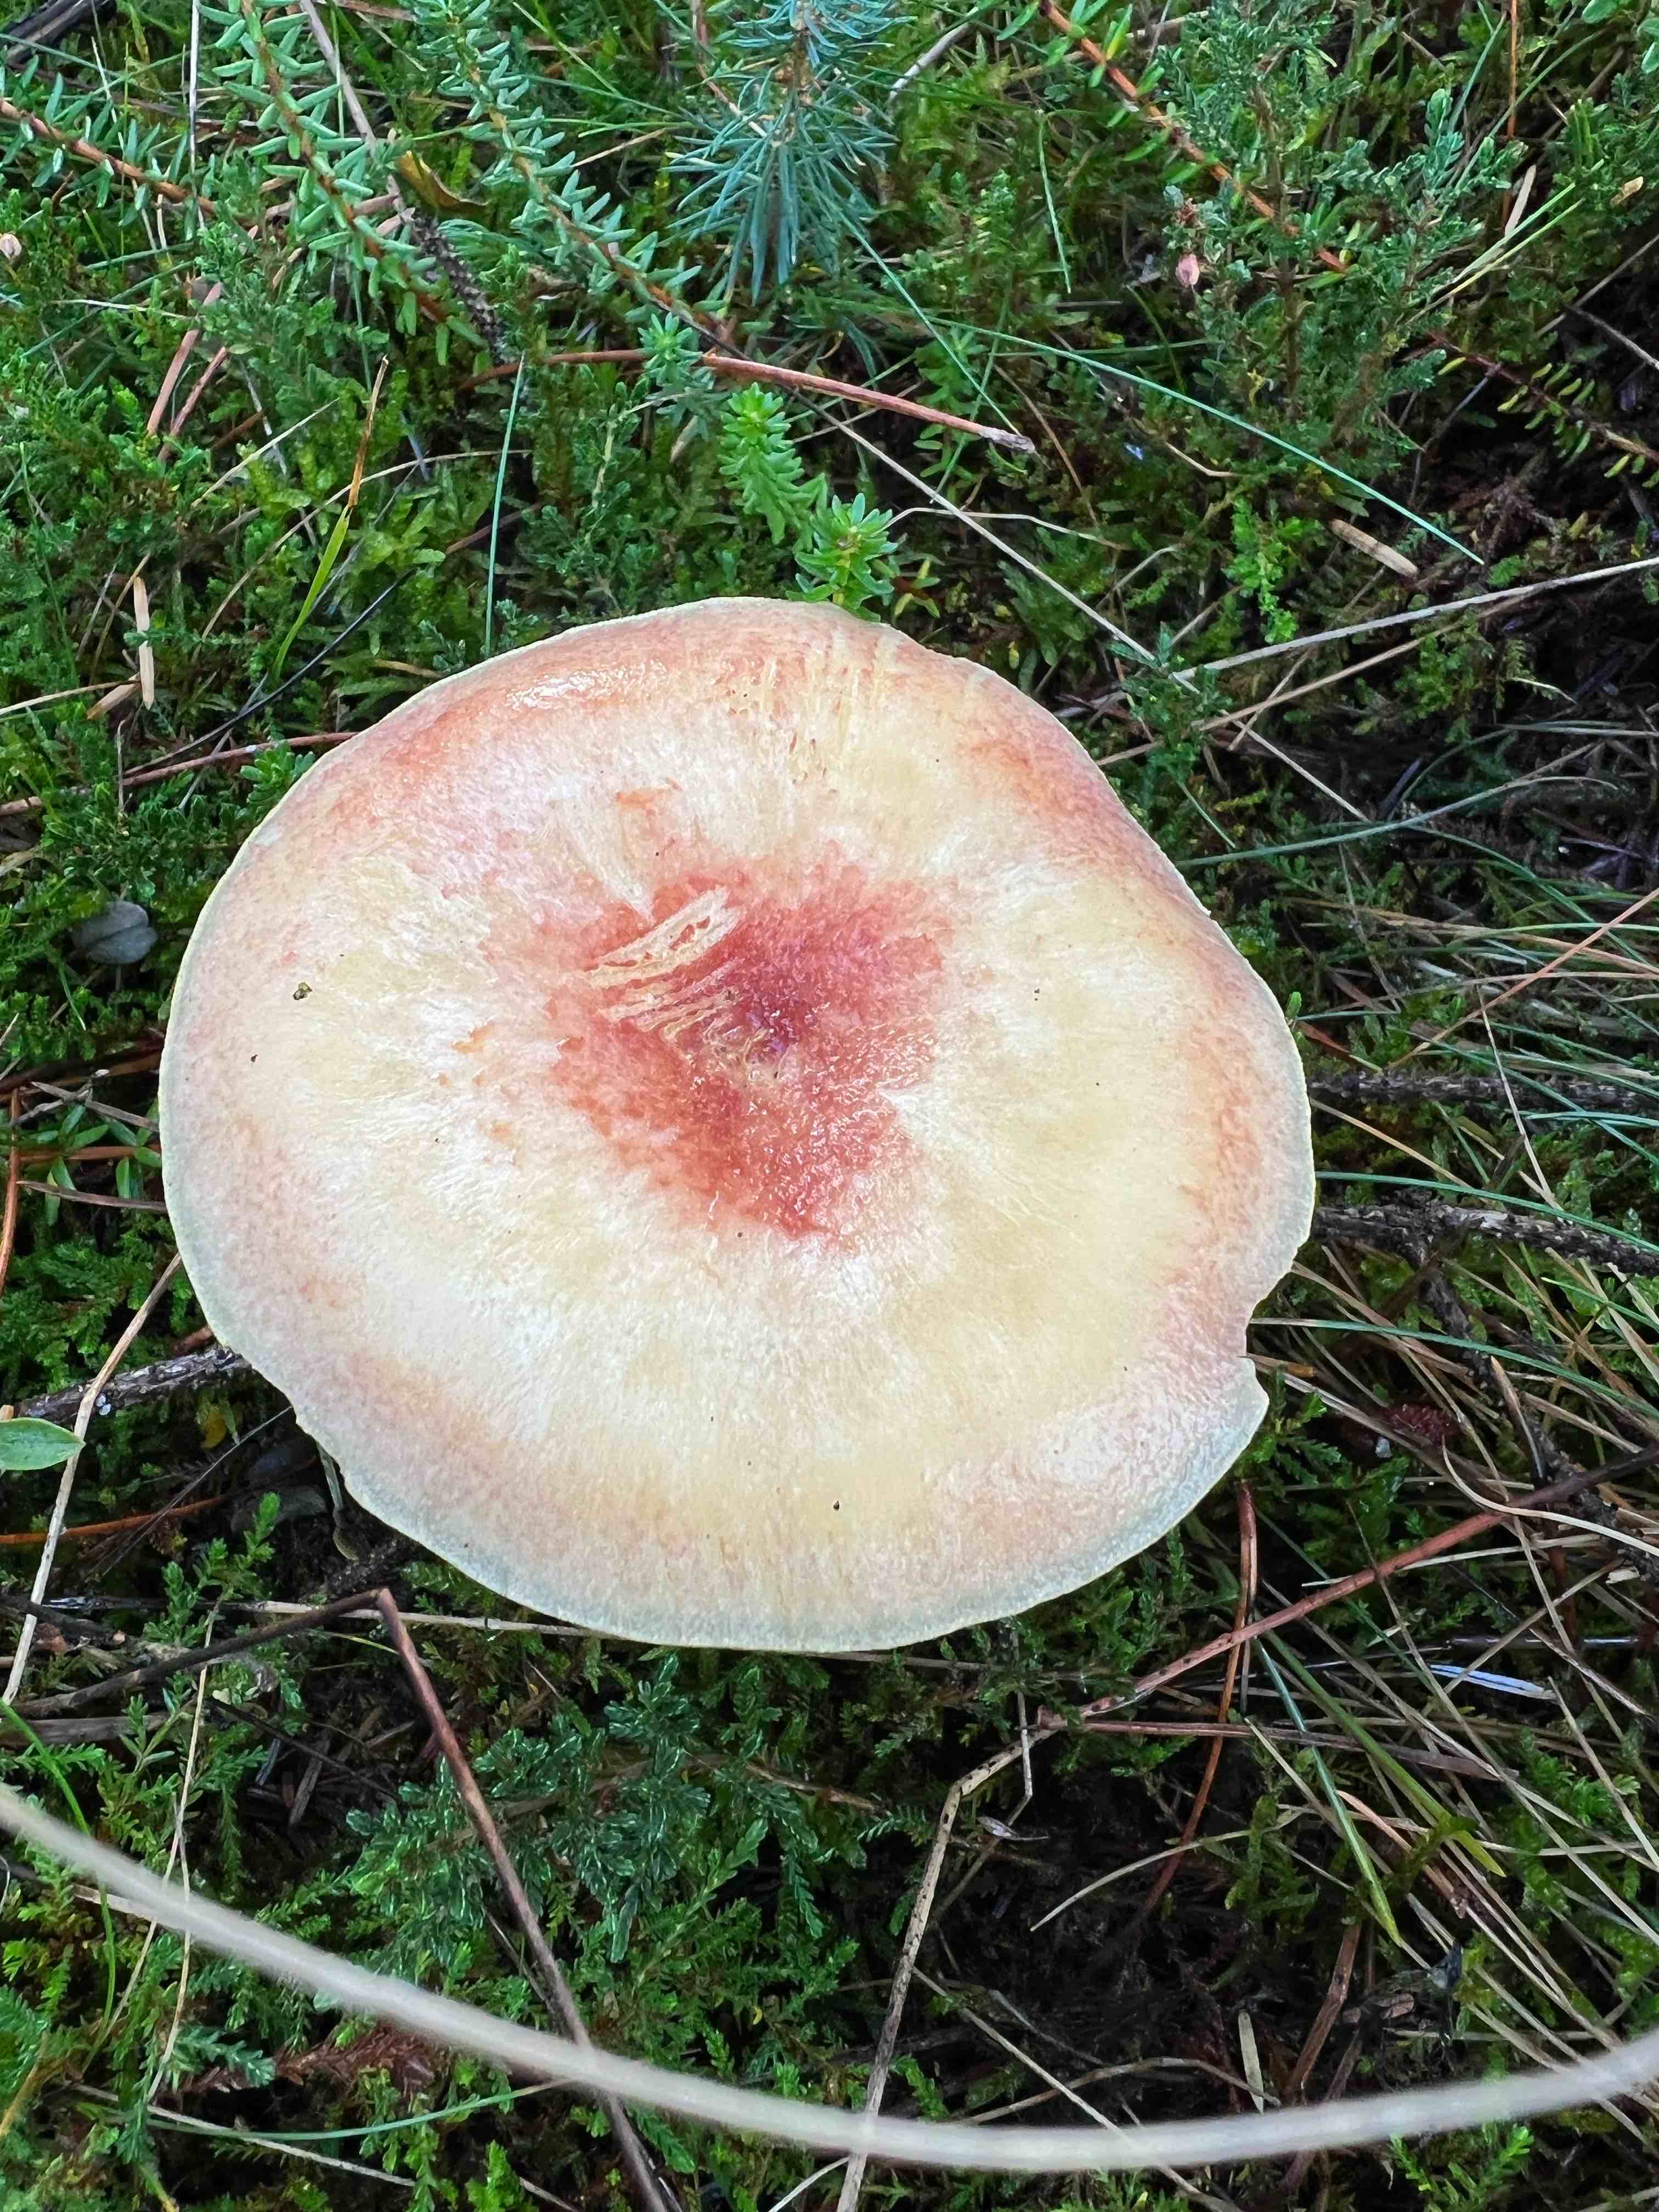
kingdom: Fungi
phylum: Basidiomycota
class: Agaricomycetes
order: Agaricales
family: Tricholomataceae
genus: Tricholomopsis
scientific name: Tricholomopsis rutilans
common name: purpur-væbnerhat
